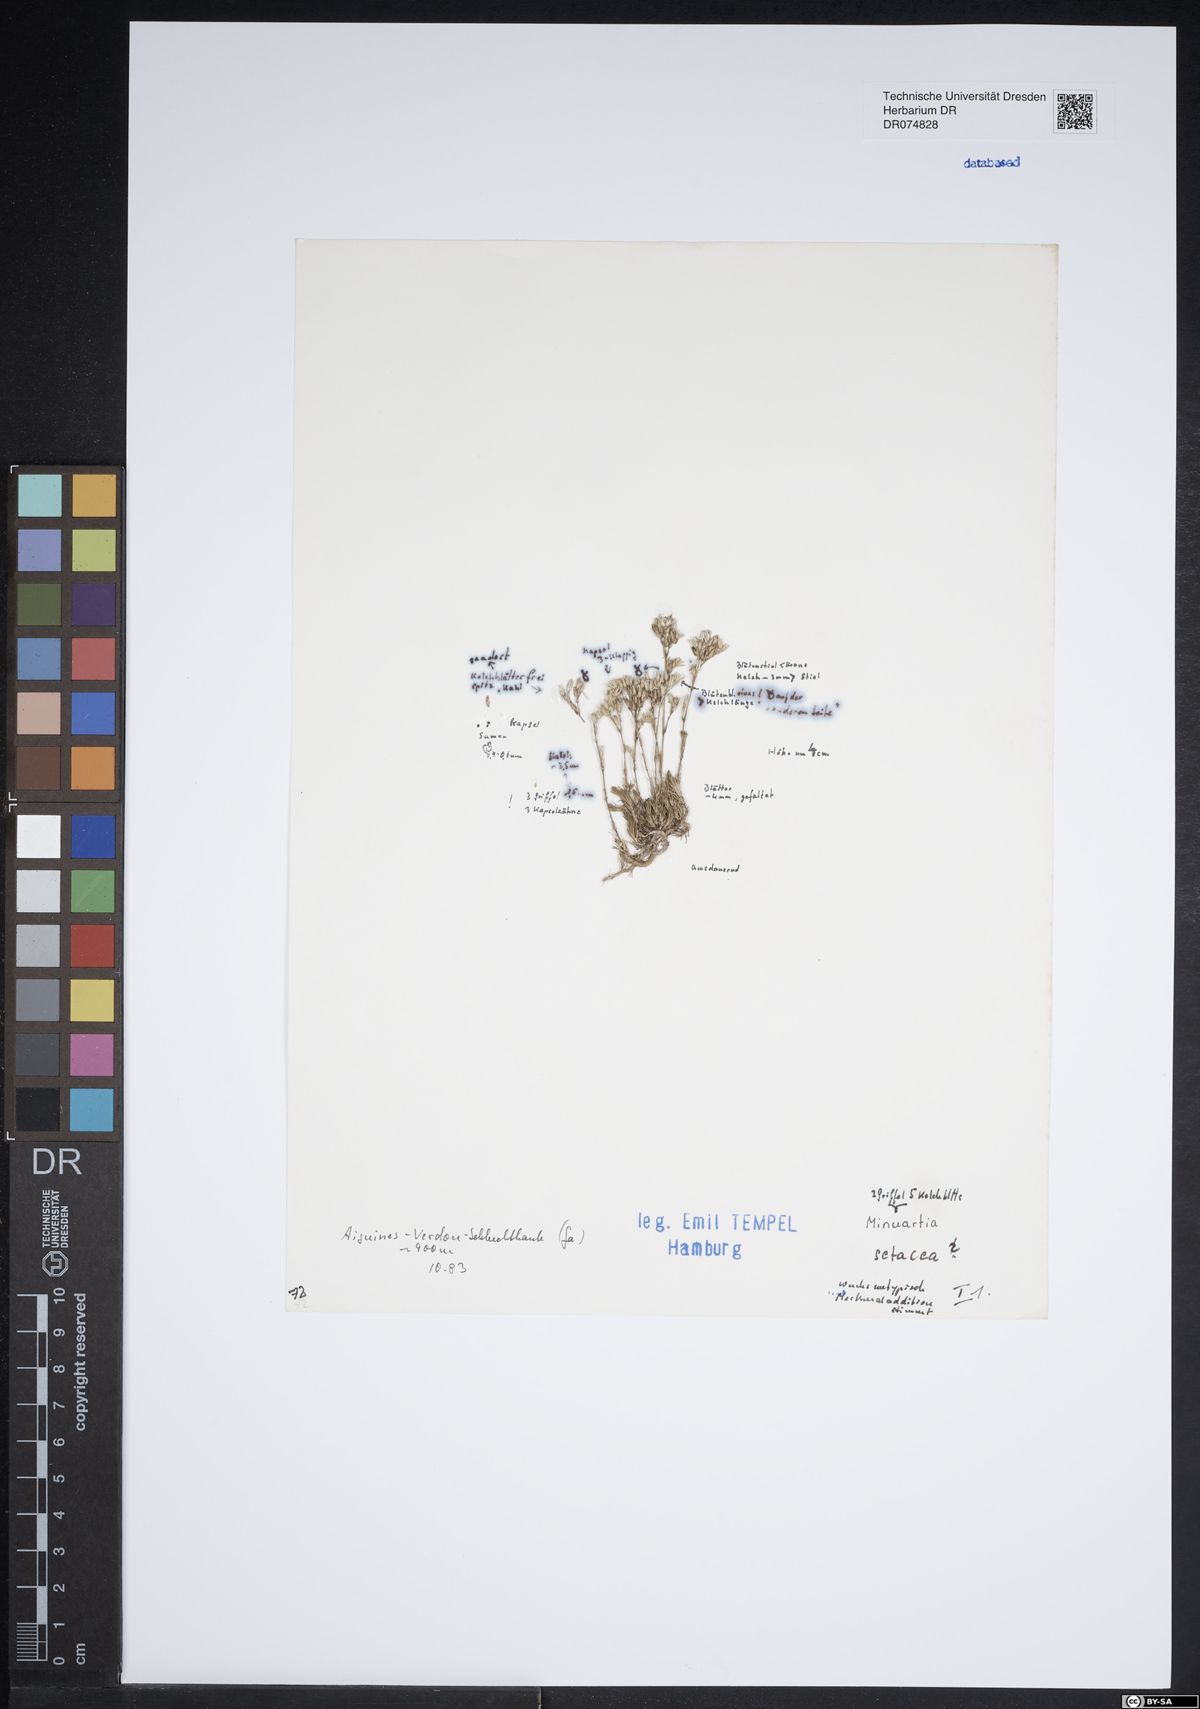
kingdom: Plantae
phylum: Tracheophyta
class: Magnoliopsida
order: Caryophyllales
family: Caryophyllaceae
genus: Minuartia
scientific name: Minuartia
